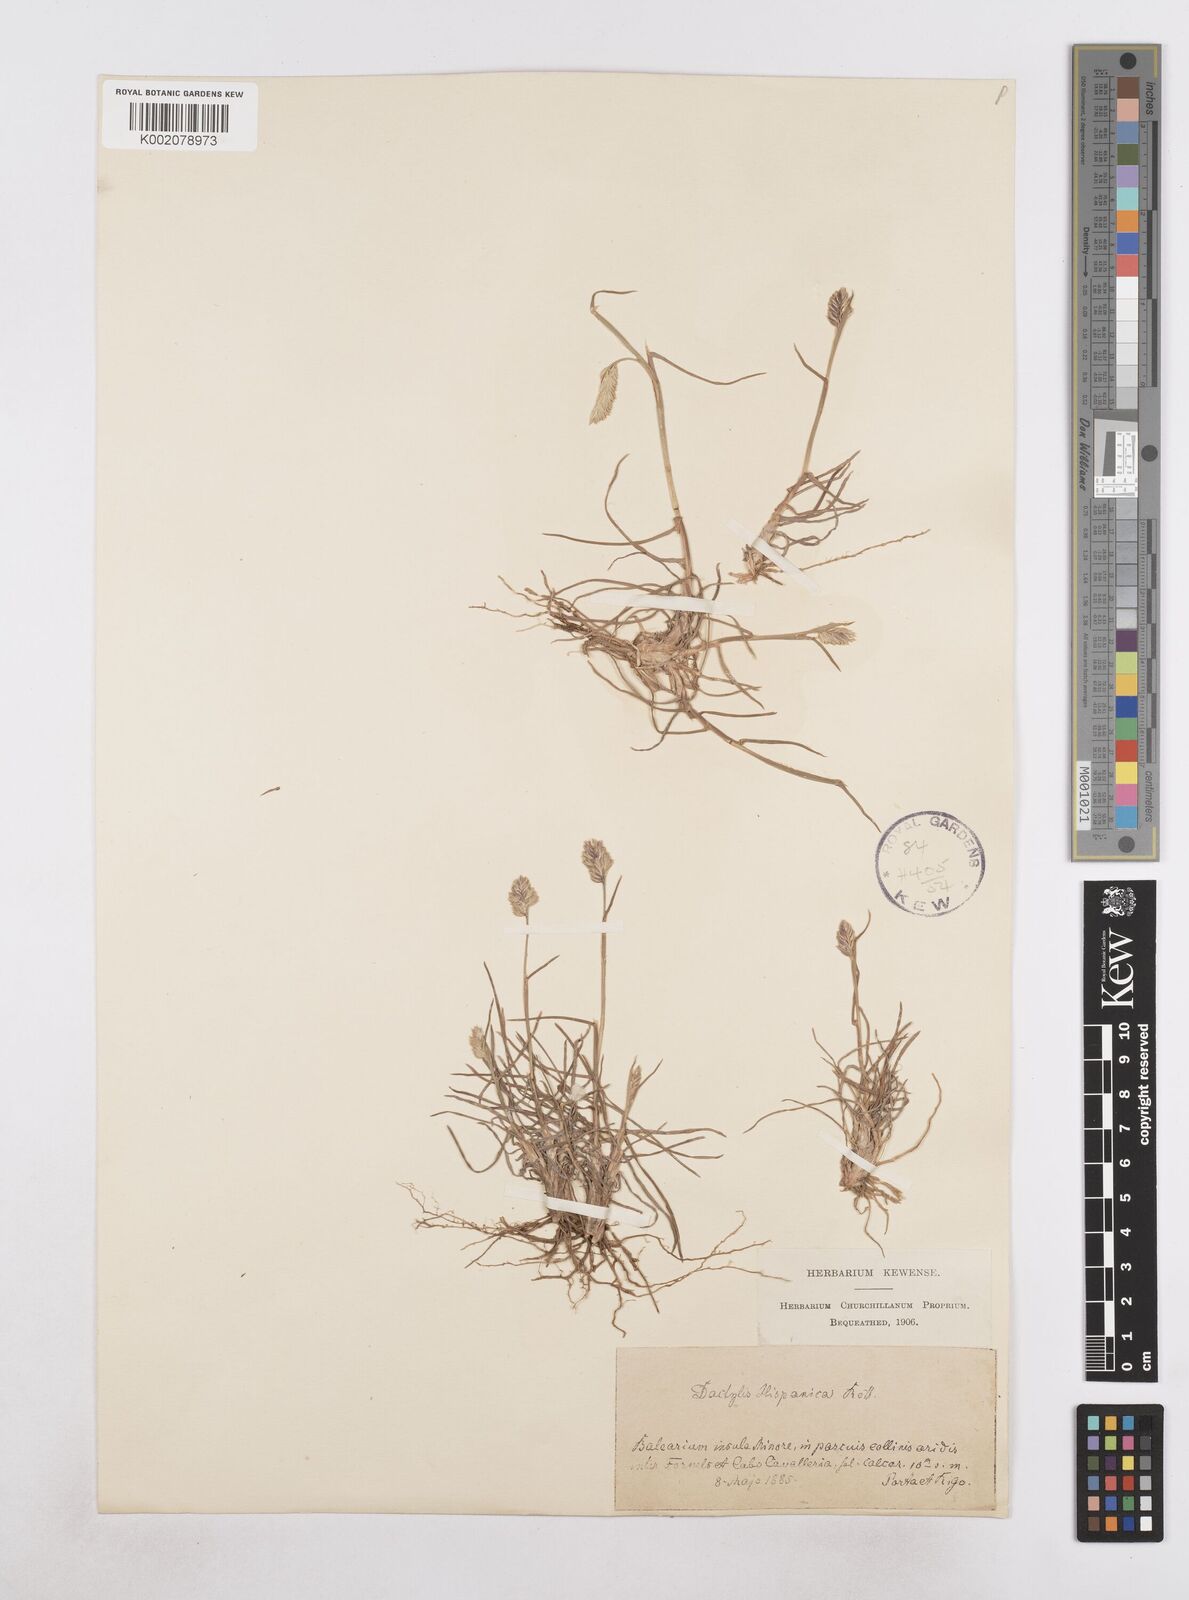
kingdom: Plantae
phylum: Tracheophyta
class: Liliopsida
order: Poales
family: Poaceae
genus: Dactylis
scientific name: Dactylis glomerata
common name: Orchardgrass
